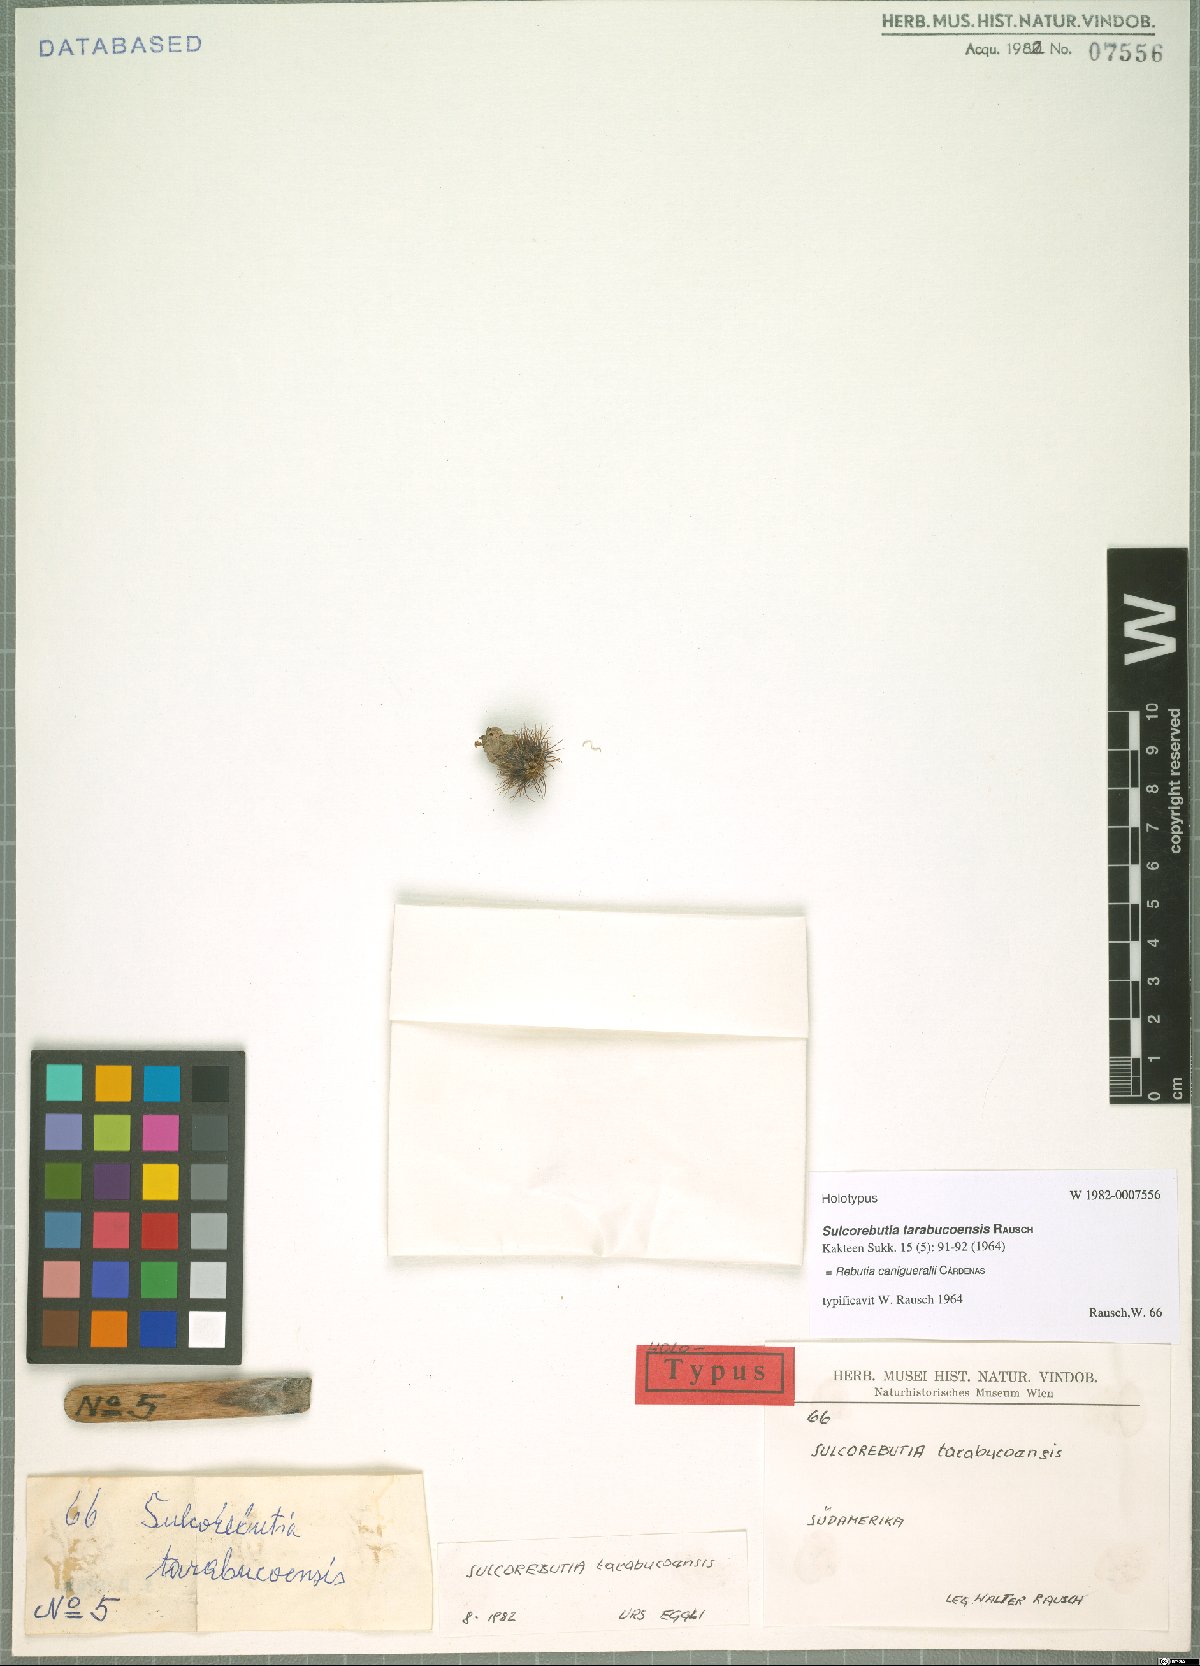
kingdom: Plantae
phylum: Tracheophyta
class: Magnoliopsida
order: Caryophyllales
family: Cactaceae
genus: Weingartia
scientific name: Weingartia canigueralii
